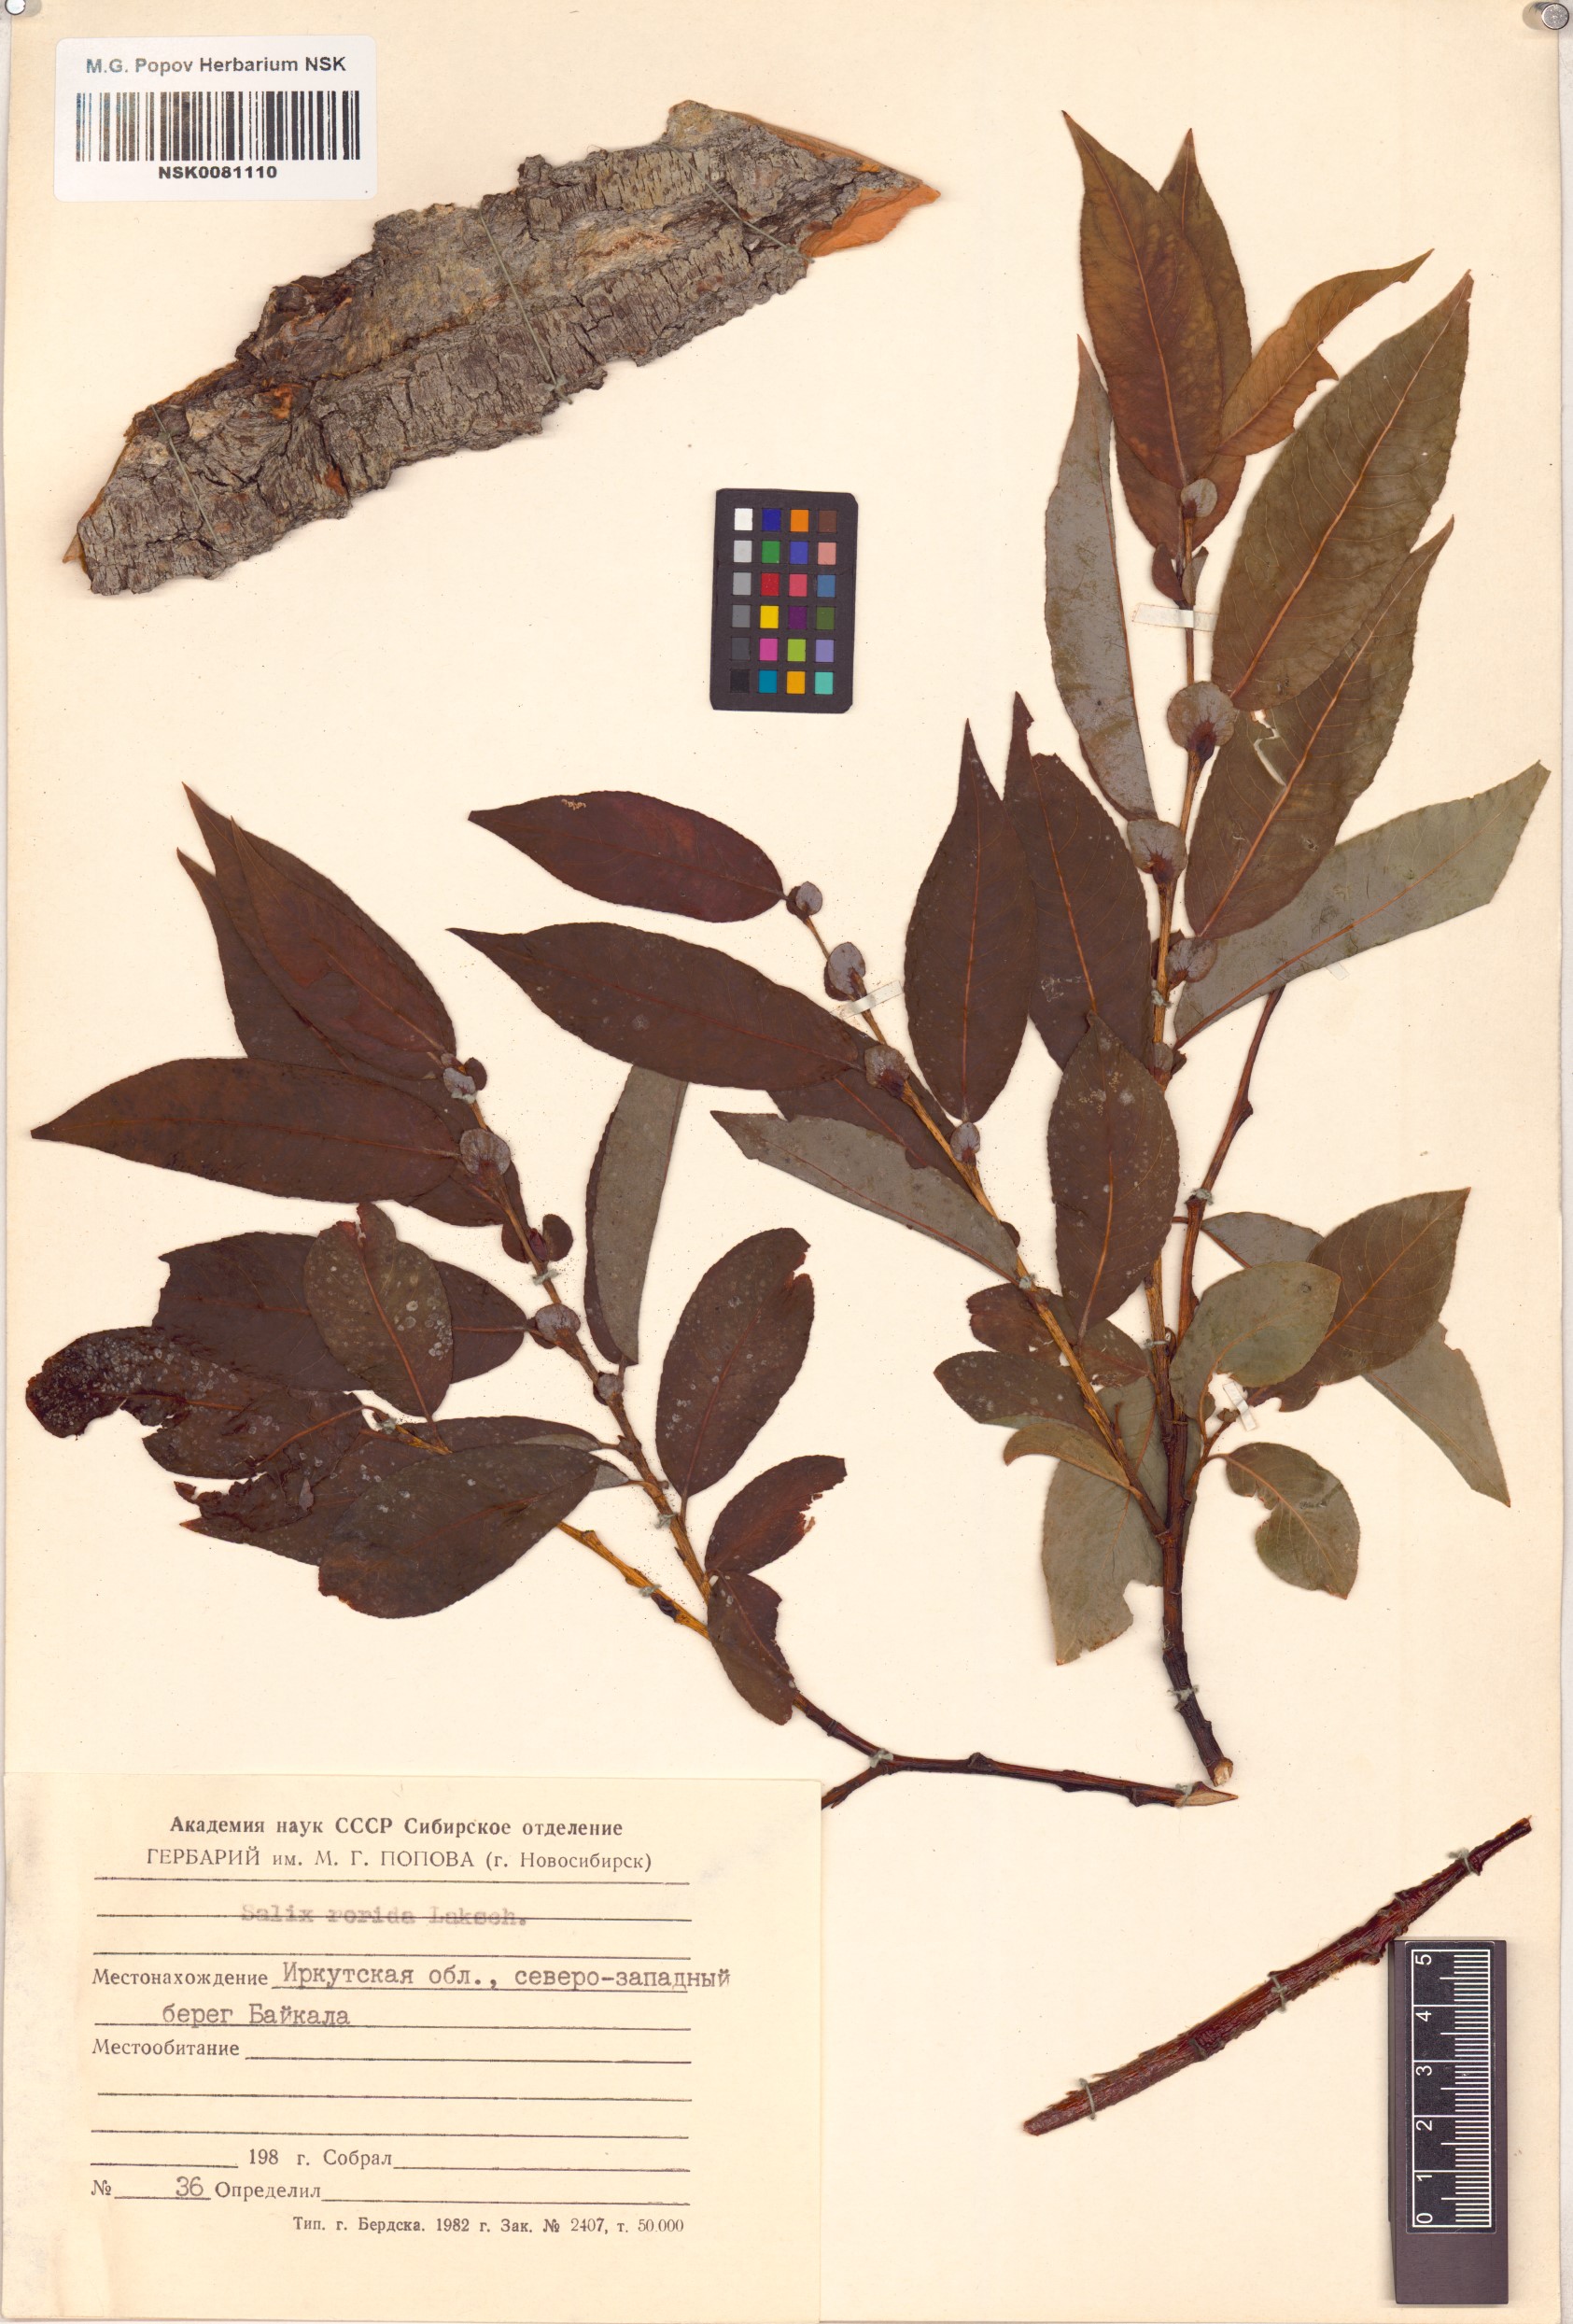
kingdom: Plantae
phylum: Tracheophyta
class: Magnoliopsida
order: Malpighiales
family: Salicaceae
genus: Salix
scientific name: Salix rorida
